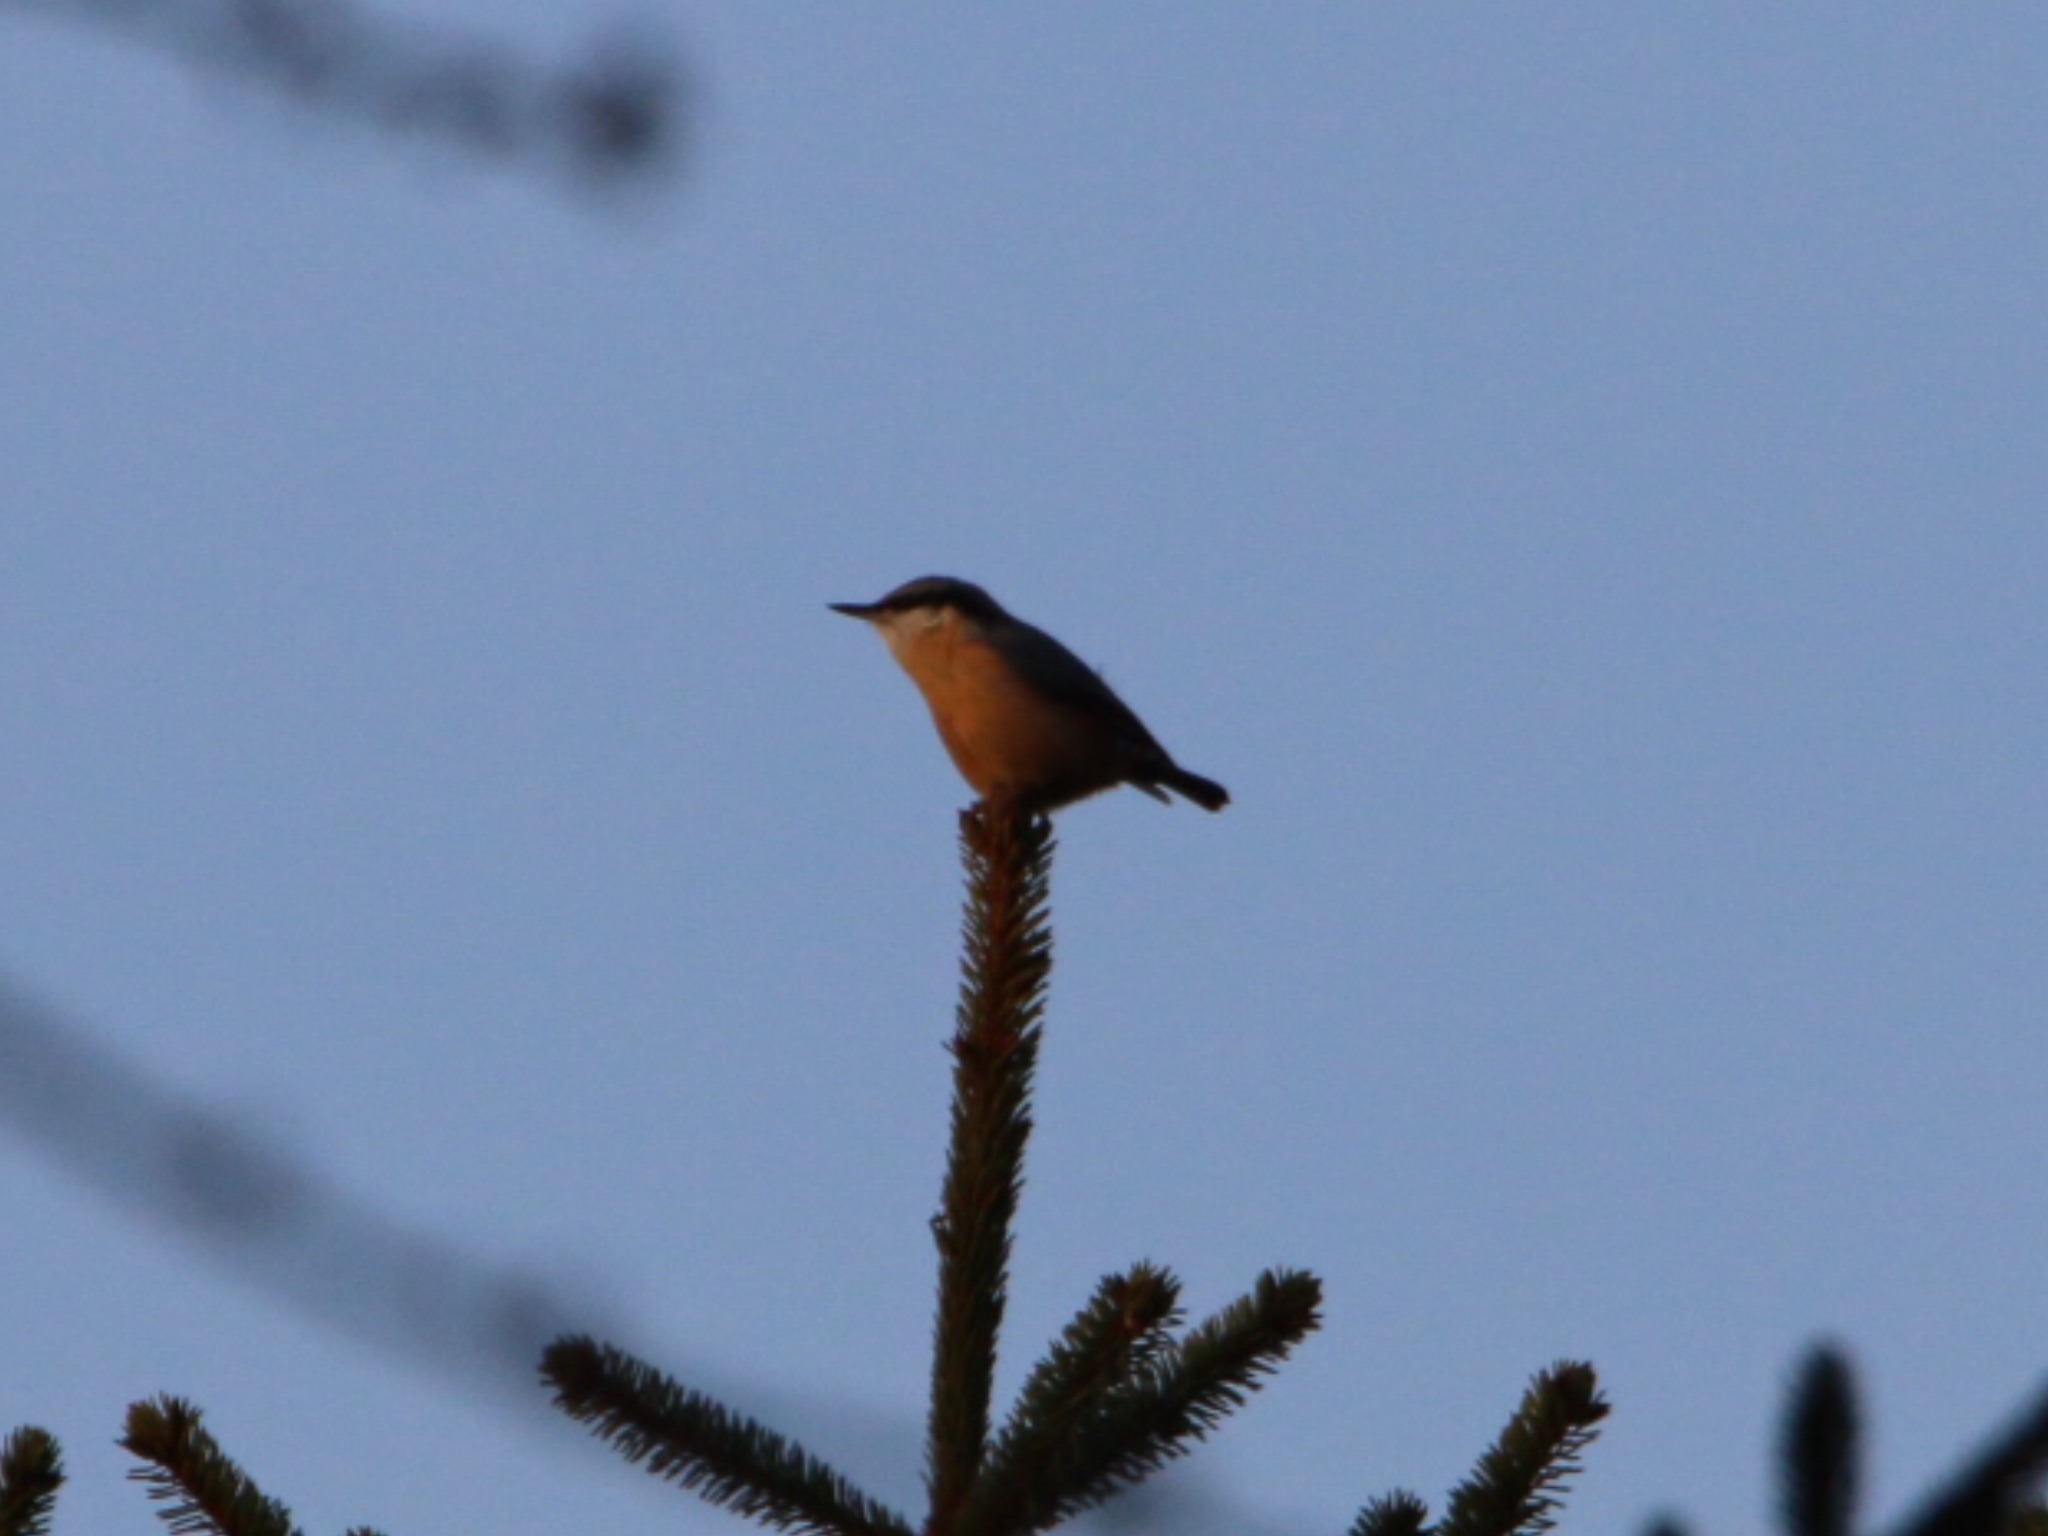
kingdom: Animalia
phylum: Chordata
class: Aves
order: Passeriformes
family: Sittidae
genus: Sitta
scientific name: Sitta europaea
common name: Spætmejse
